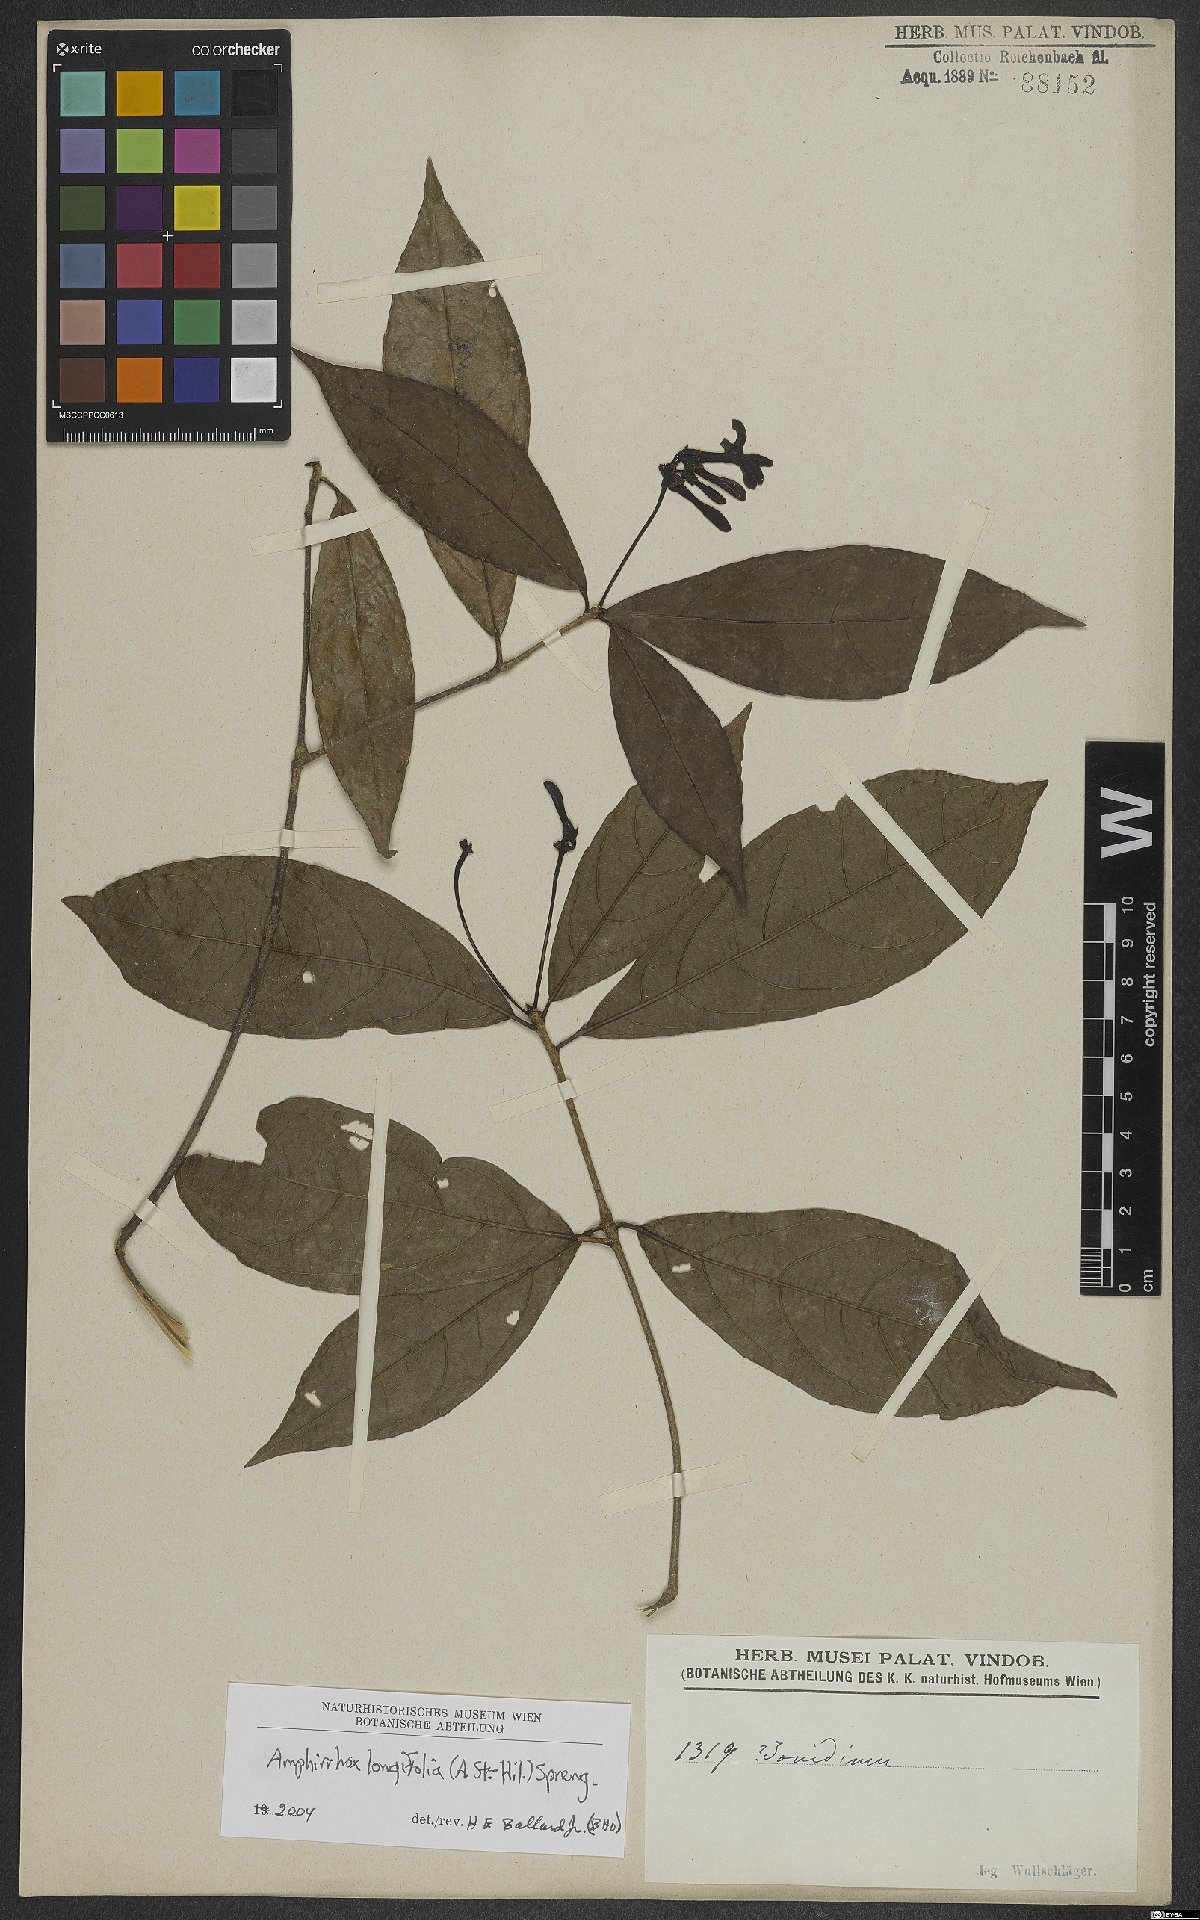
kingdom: Plantae
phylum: Tracheophyta
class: Magnoliopsida
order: Malpighiales
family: Violaceae
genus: Amphirrhox
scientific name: Amphirrhox longifolia
